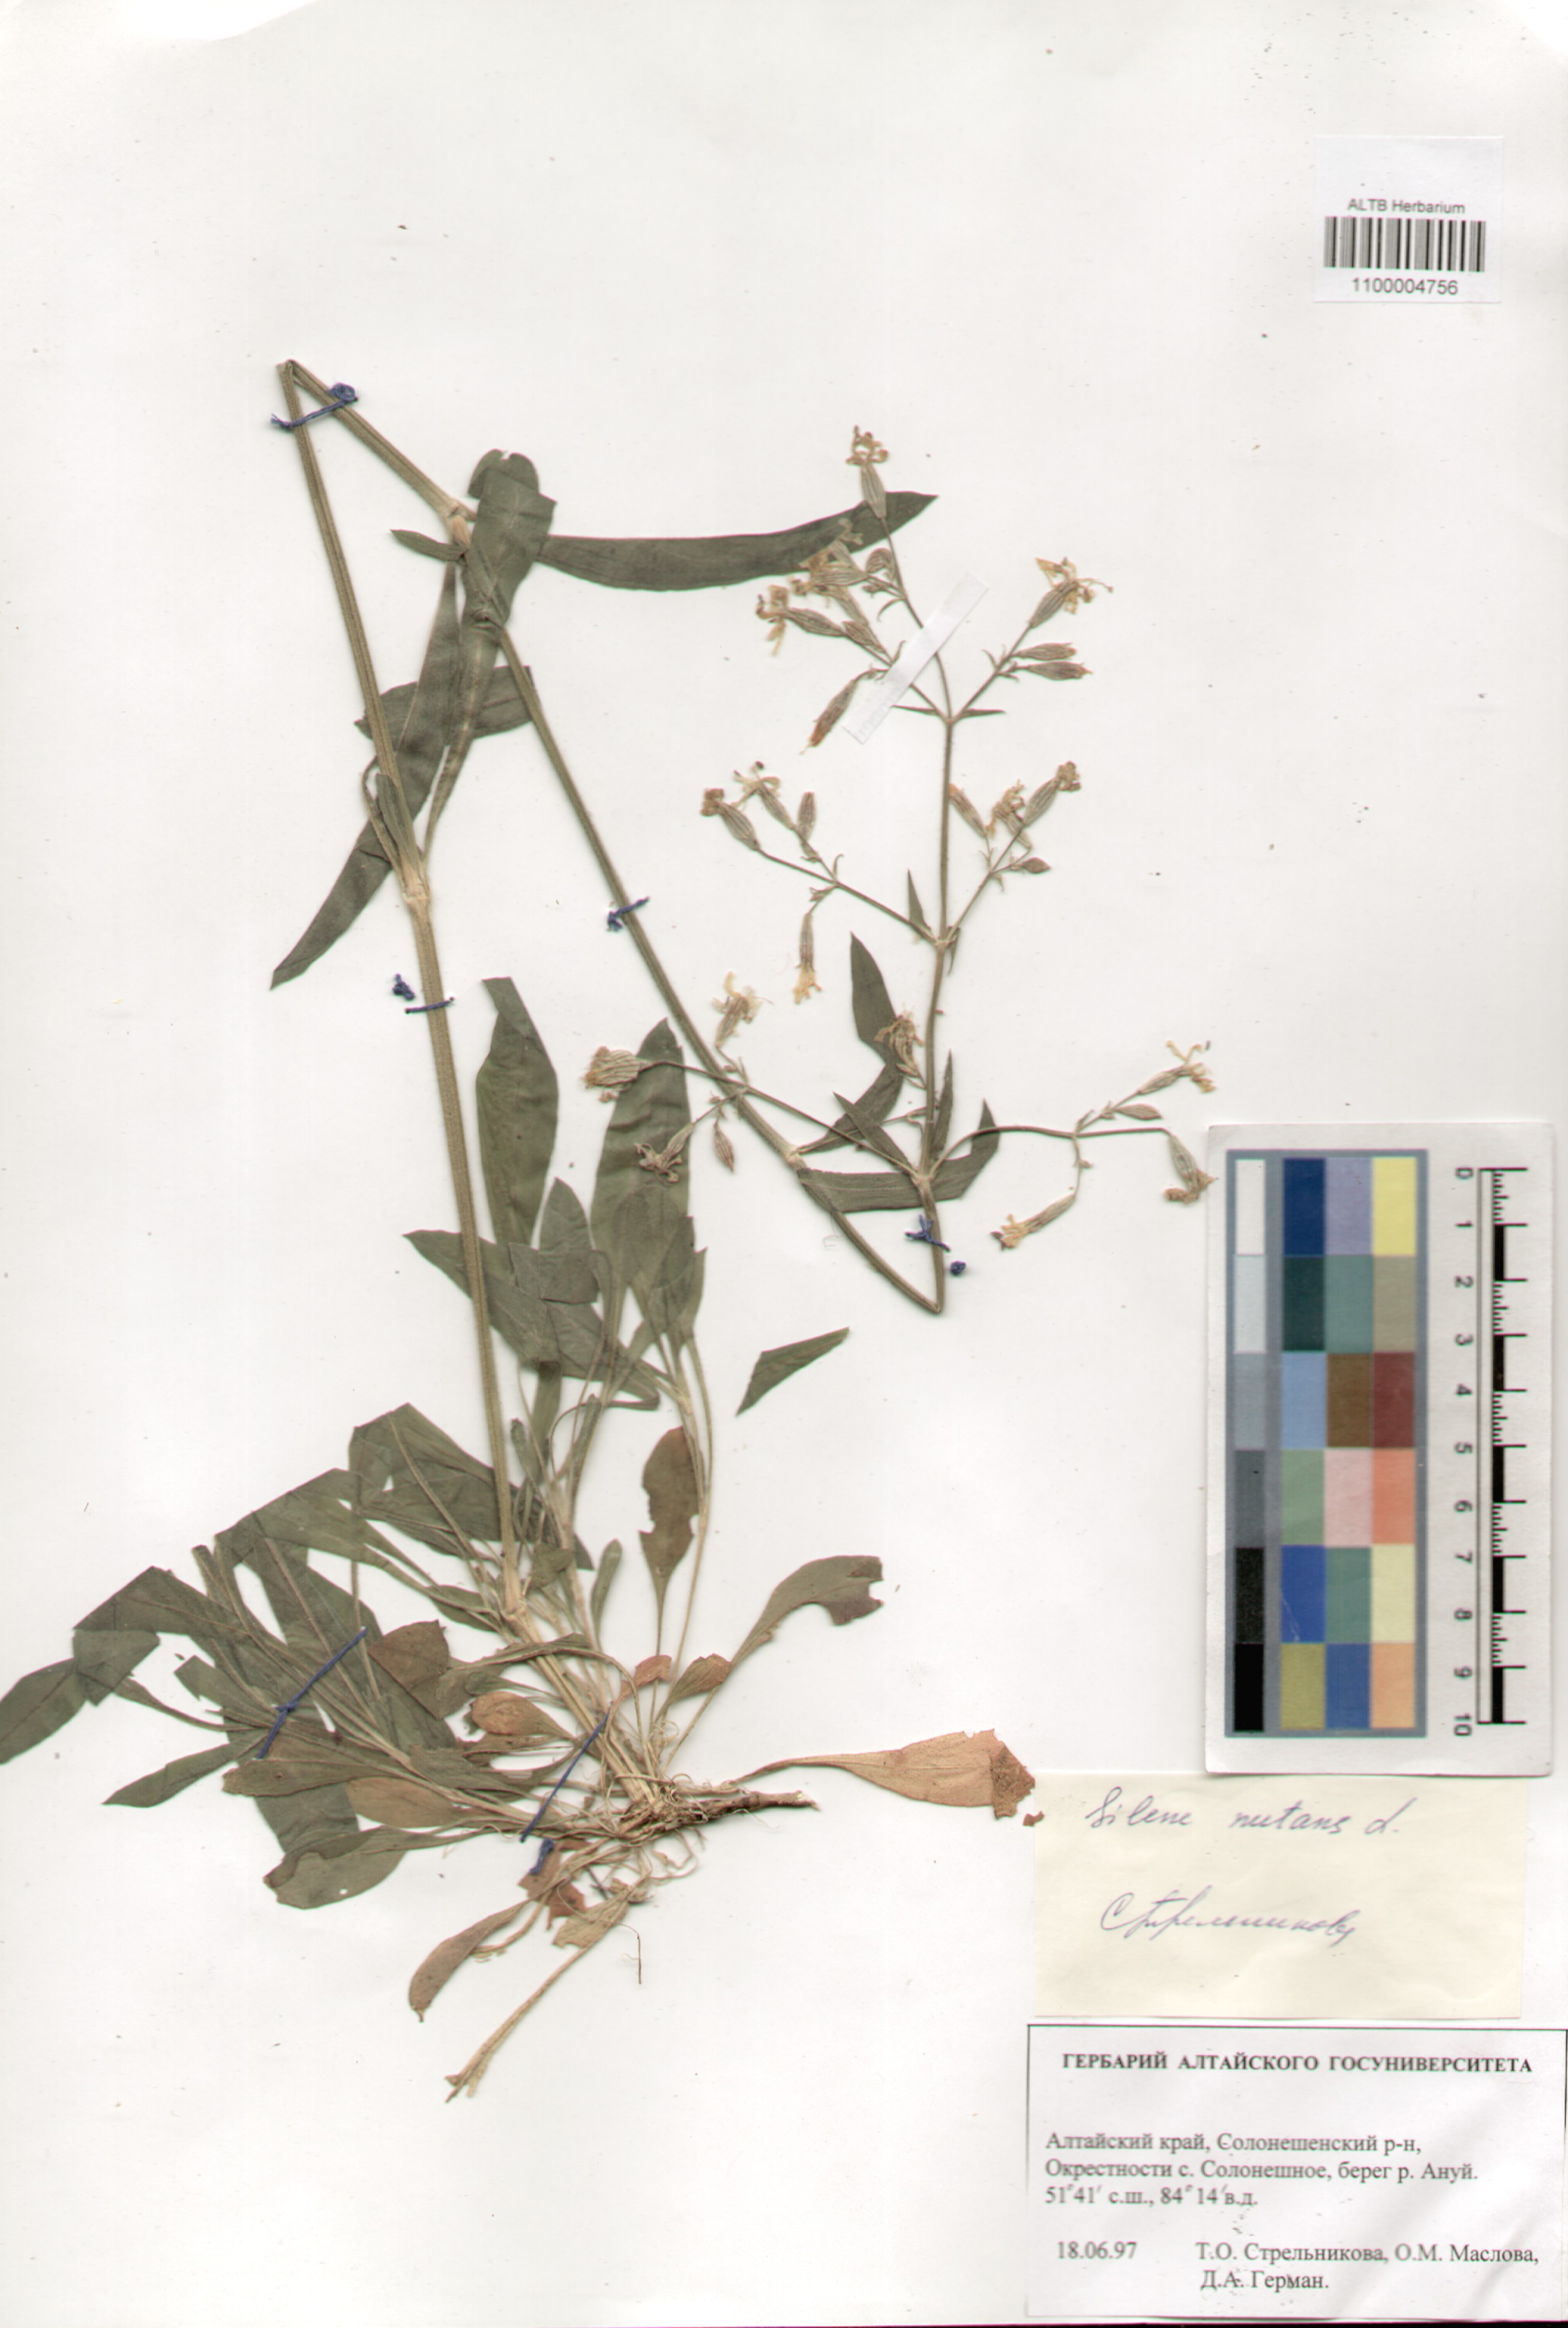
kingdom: Plantae
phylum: Tracheophyta
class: Magnoliopsida
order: Caryophyllales
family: Caryophyllaceae
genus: Silene
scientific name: Silene nutans
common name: Nottingham catchfly
